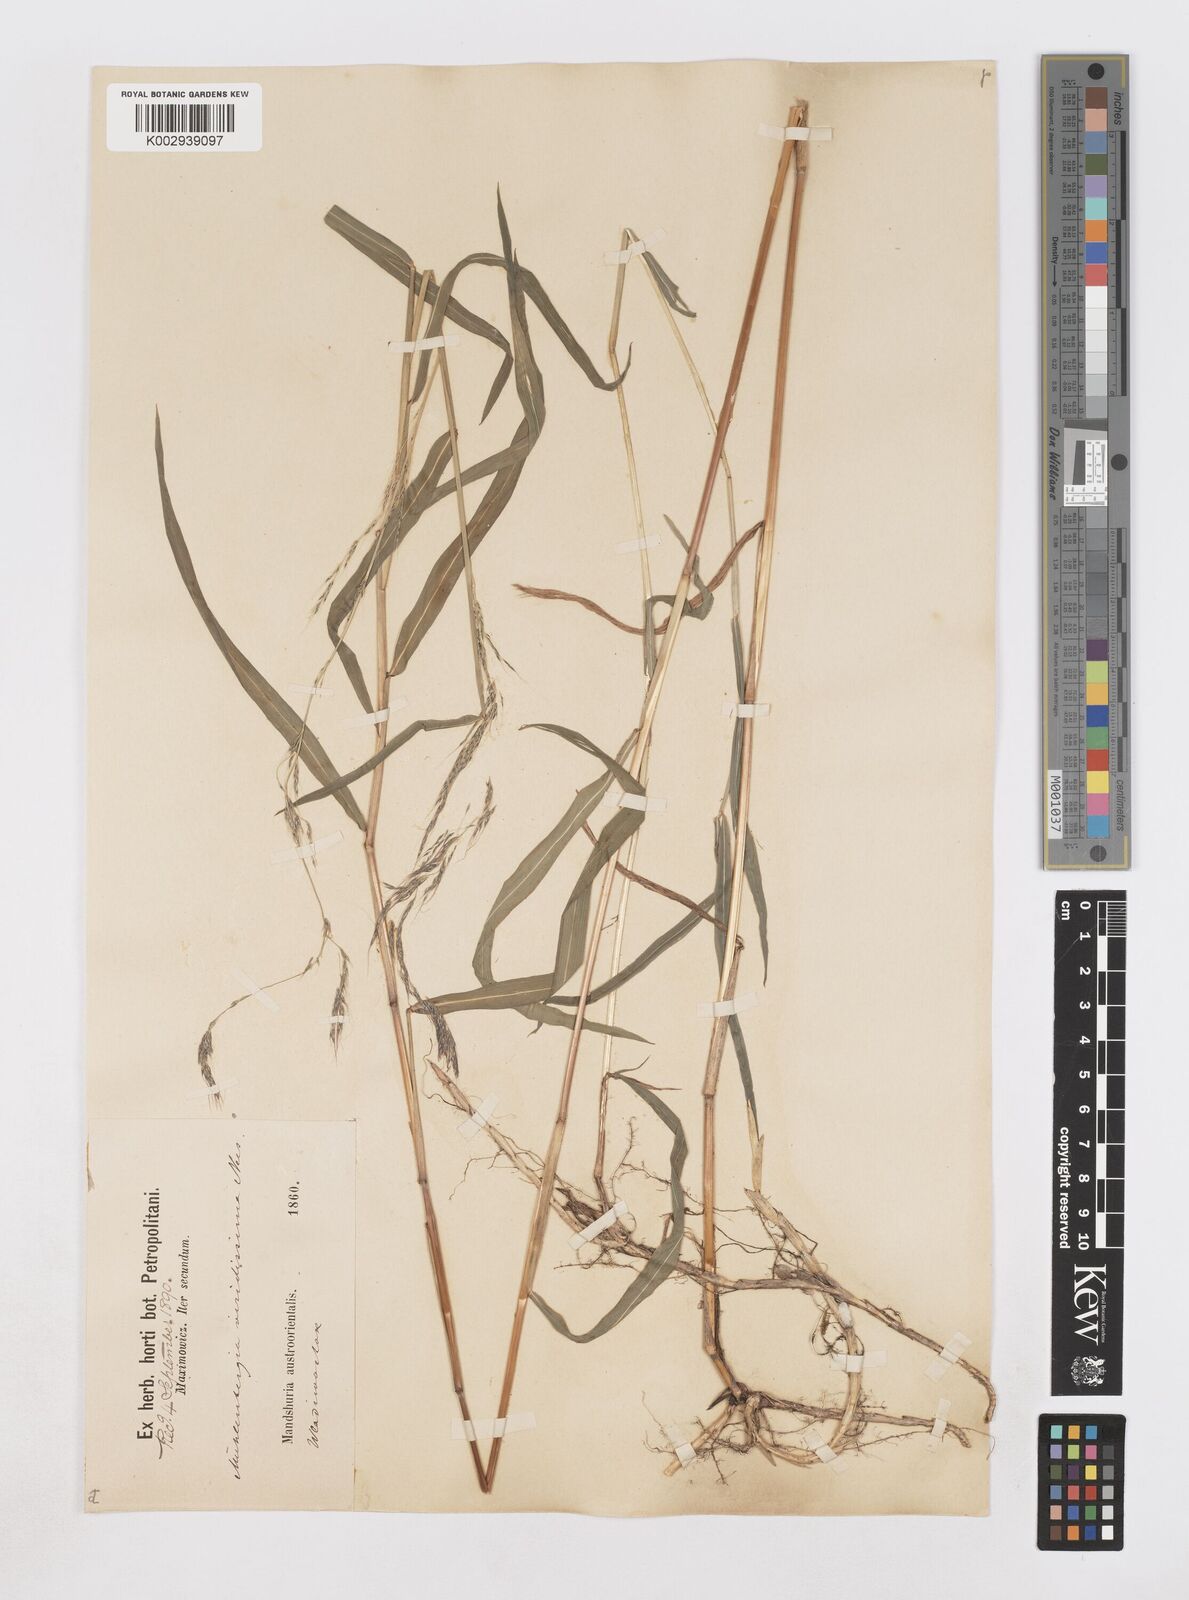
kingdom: Plantae
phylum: Tracheophyta
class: Liliopsida
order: Poales
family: Poaceae
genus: Muhlenbergia
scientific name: Muhlenbergia huegelii
